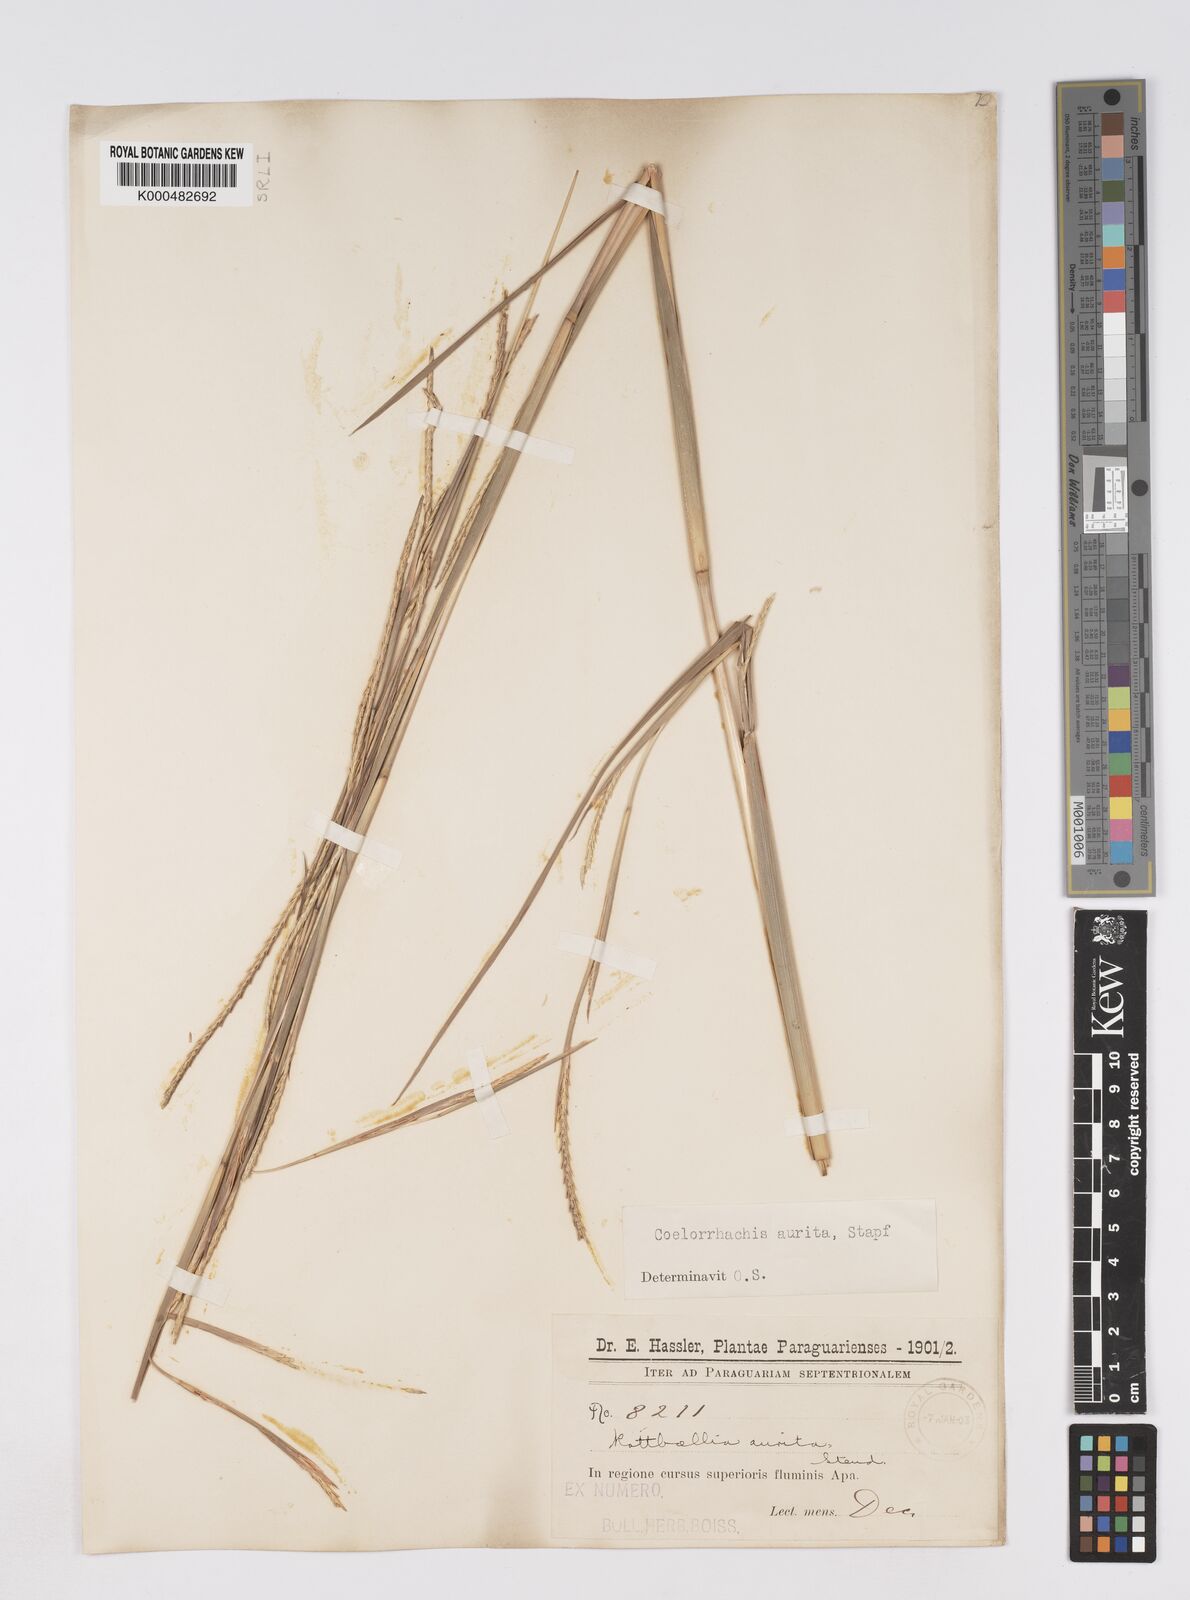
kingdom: Plantae
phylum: Tracheophyta
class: Liliopsida
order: Poales
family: Poaceae
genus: Rottboellia
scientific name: Rottboellia aurita
